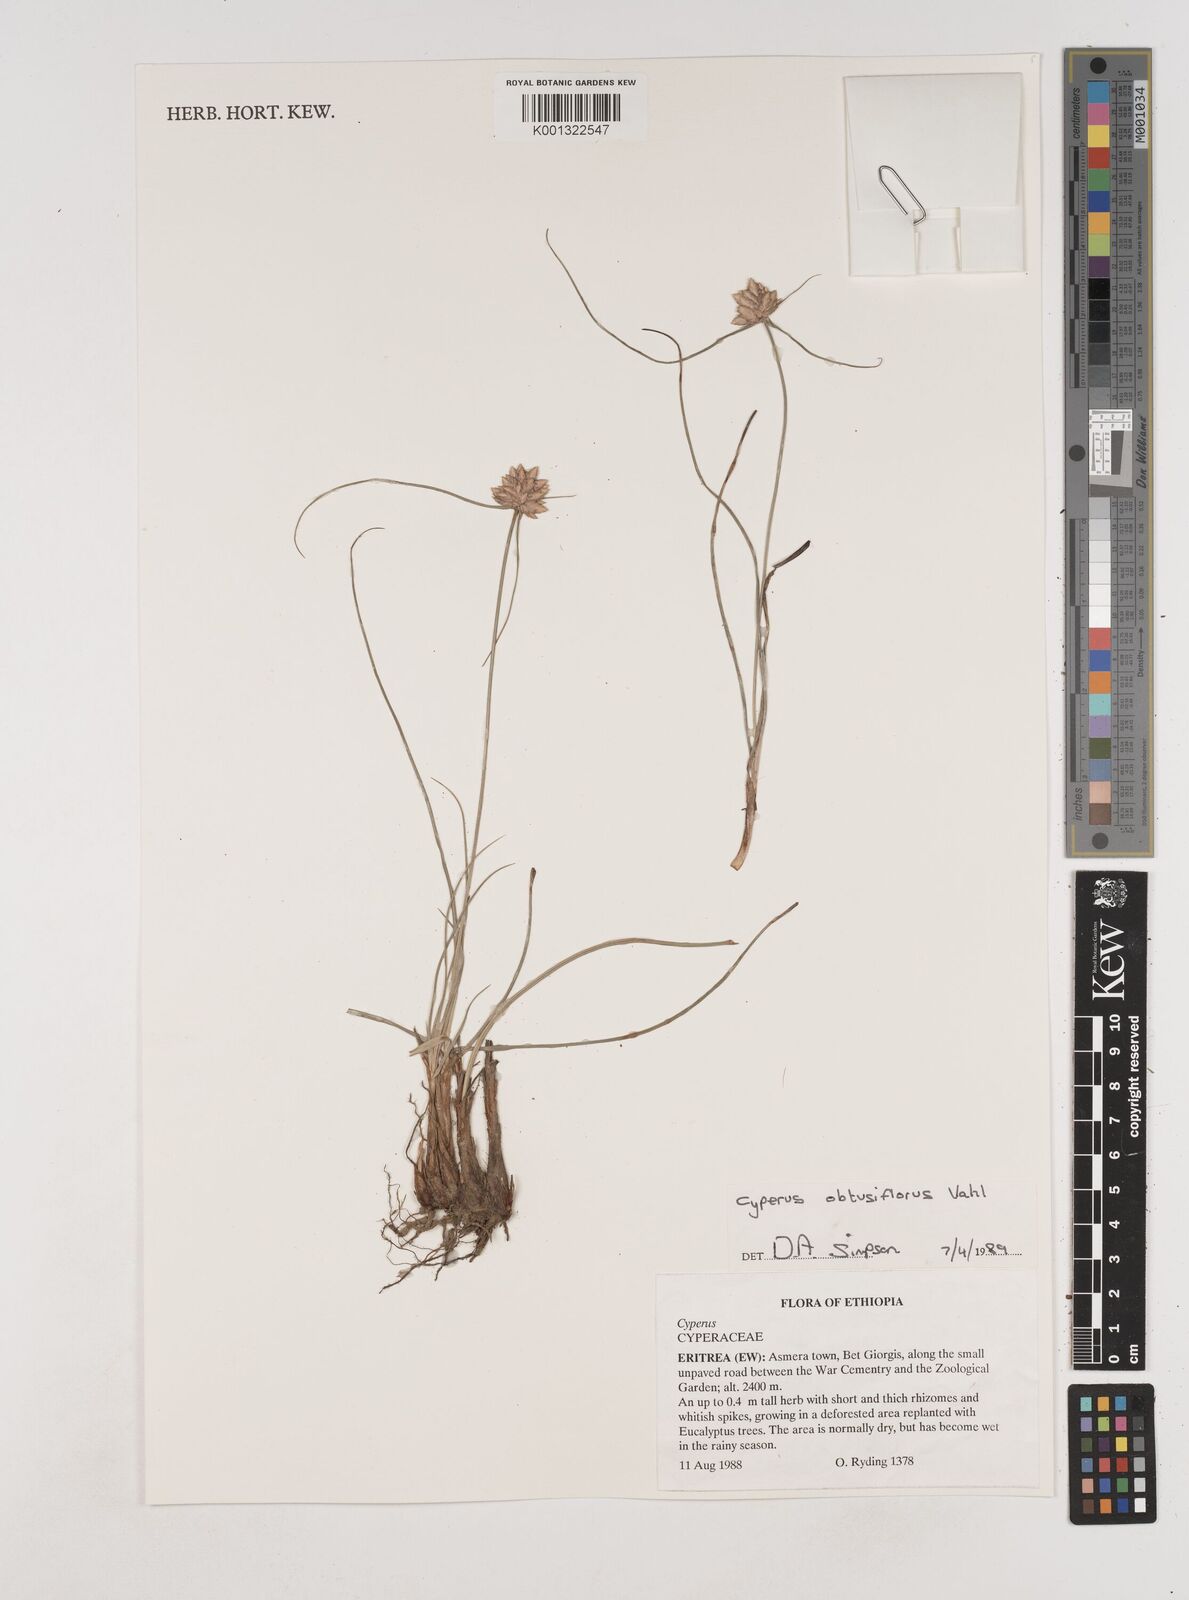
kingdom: Plantae
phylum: Tracheophyta
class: Liliopsida
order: Poales
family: Cyperaceae
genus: Cyperus
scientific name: Cyperus niveus
